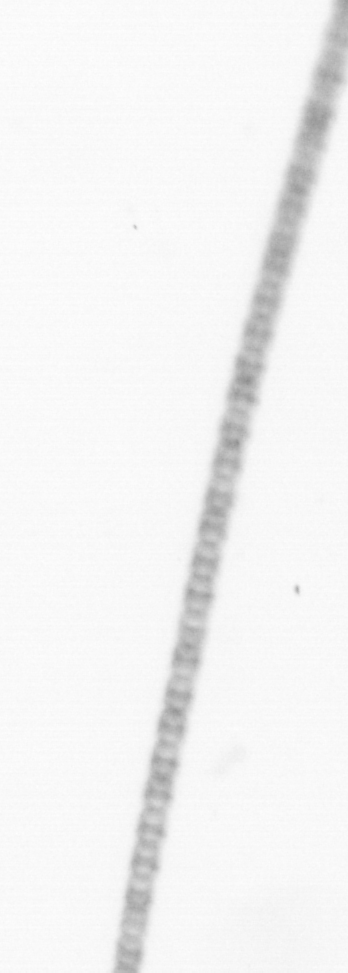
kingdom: Chromista
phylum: Ochrophyta
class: Bacillariophyceae
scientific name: Bacillariophyceae
